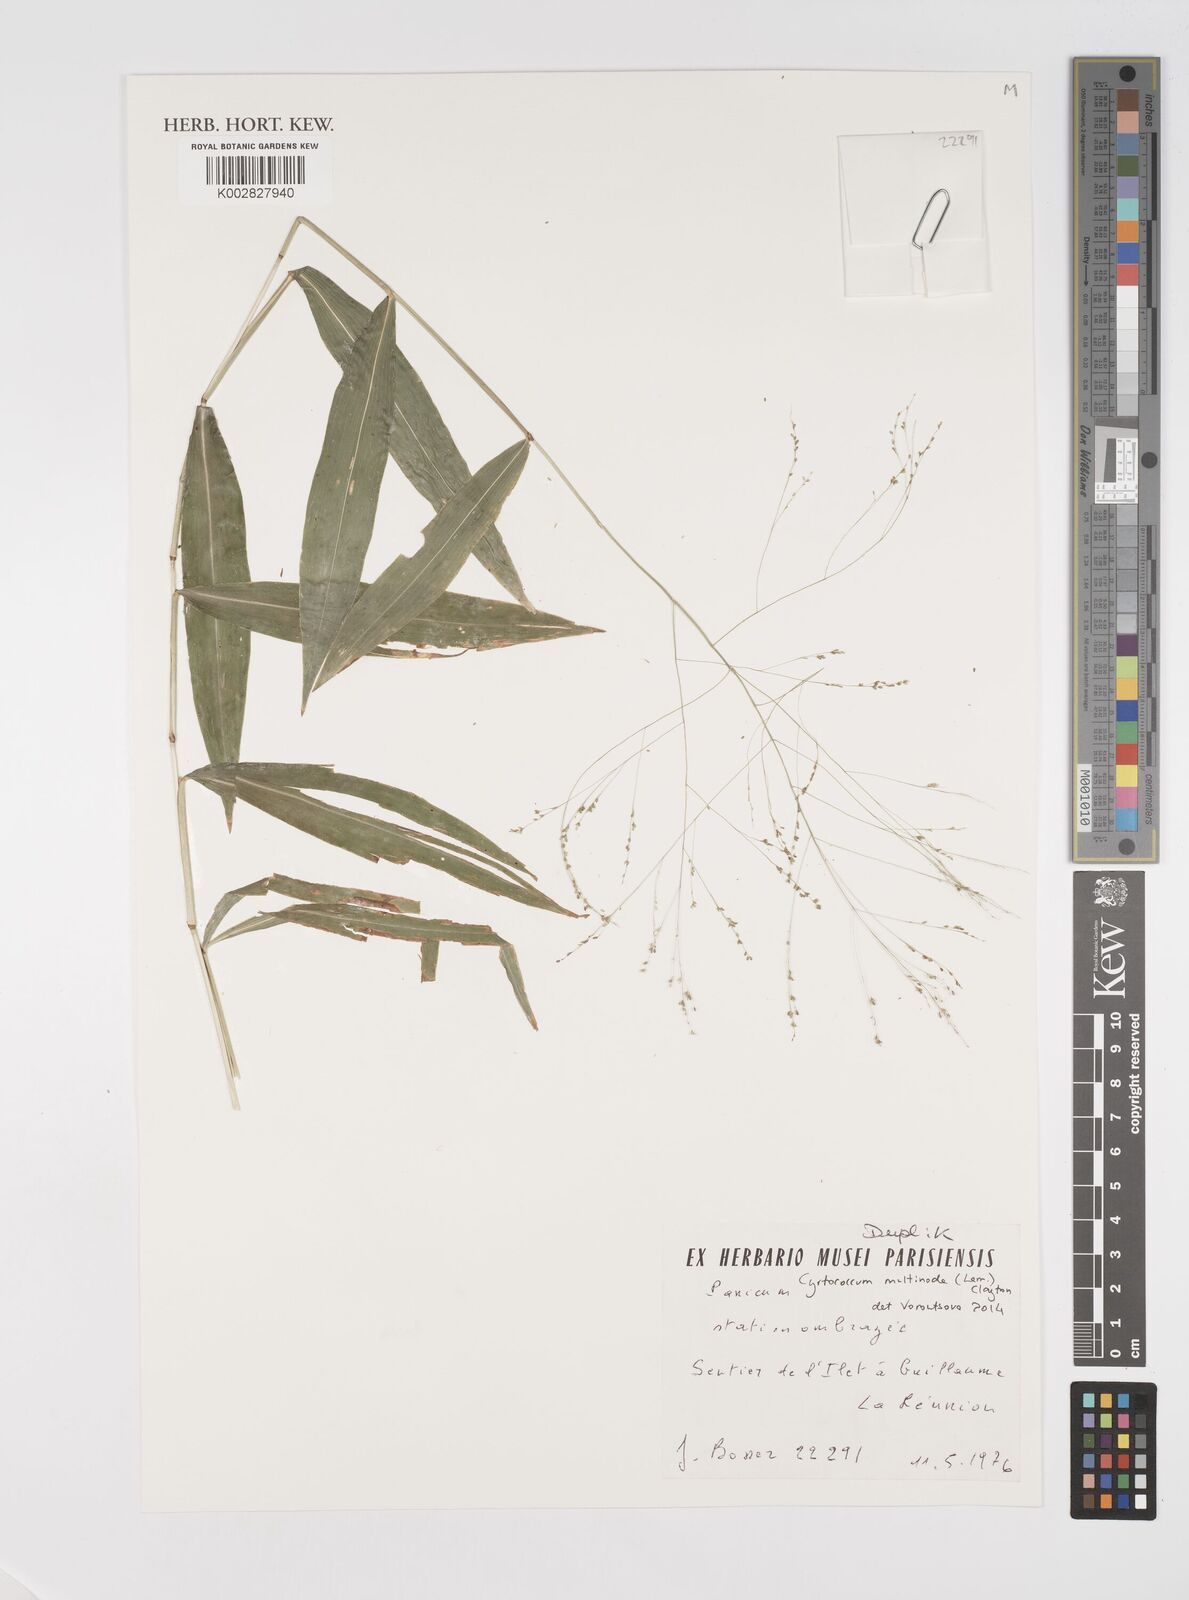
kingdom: Plantae
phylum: Tracheophyta
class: Liliopsida
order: Poales
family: Poaceae
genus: Cyrtococcum
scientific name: Cyrtococcum multinode
